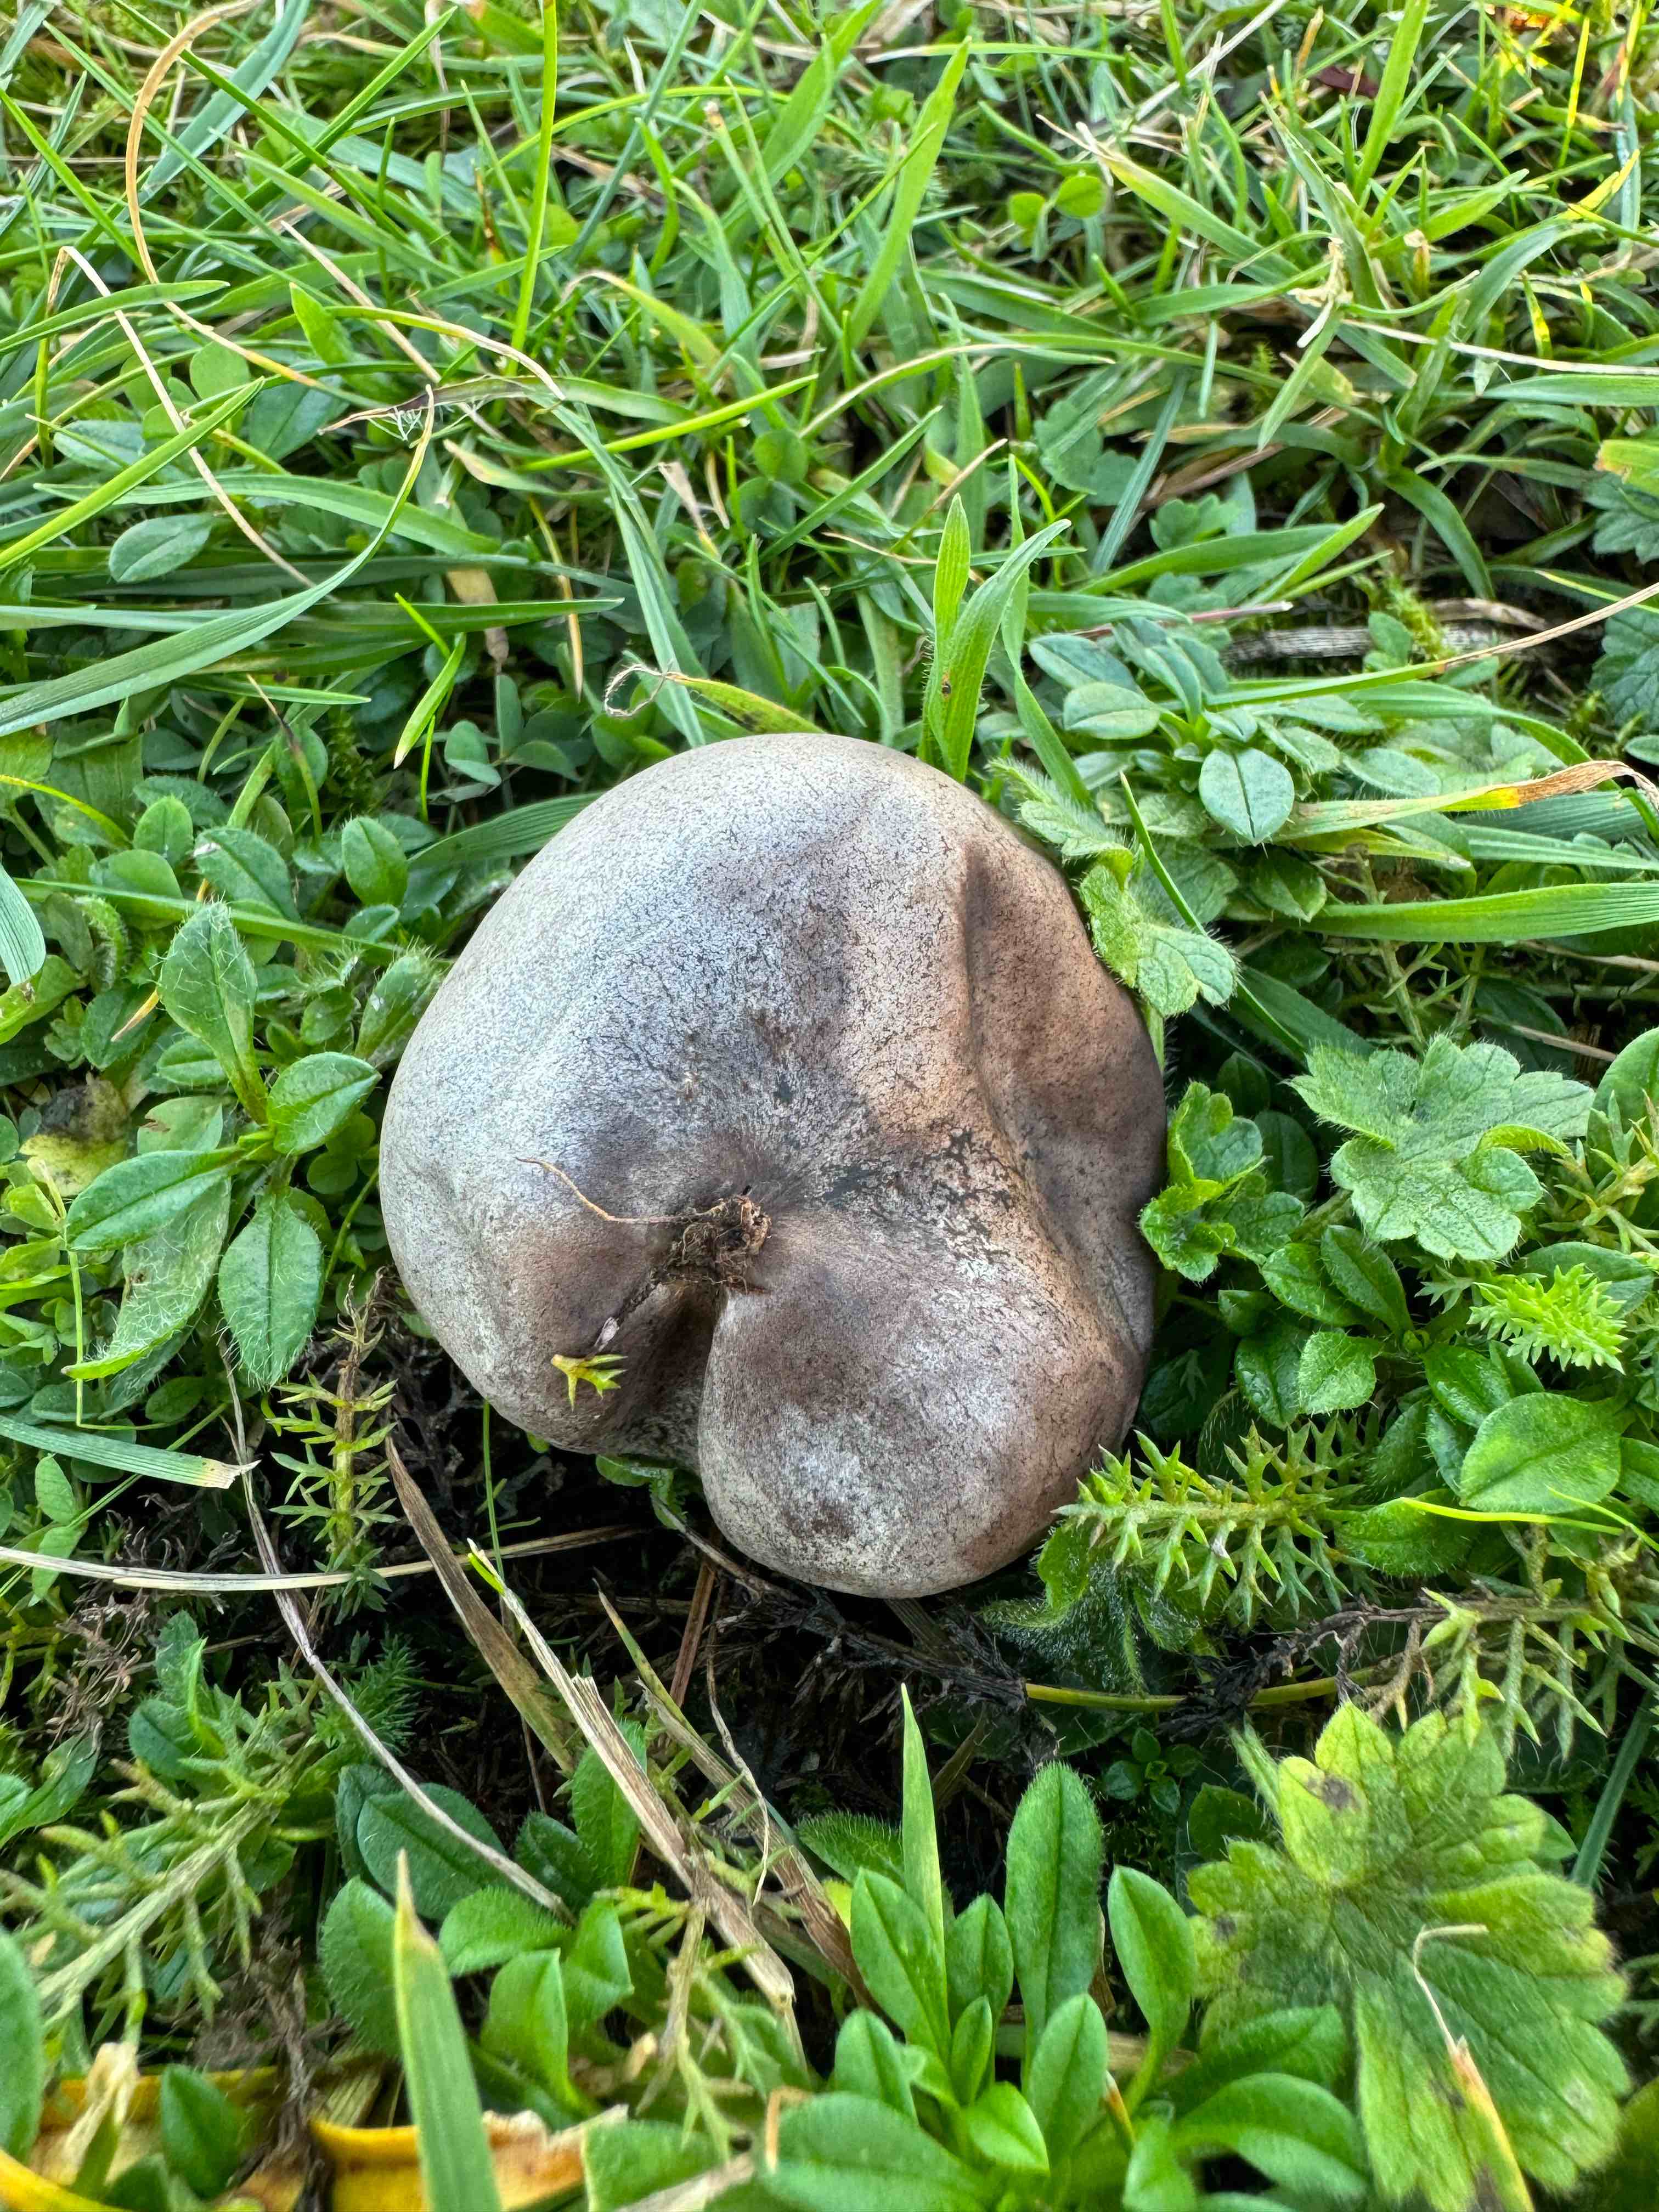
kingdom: Fungi
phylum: Basidiomycota
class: Agaricomycetes
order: Agaricales
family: Lycoperdaceae
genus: Bovista
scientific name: Bovista plumbea
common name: blygrå bovist
